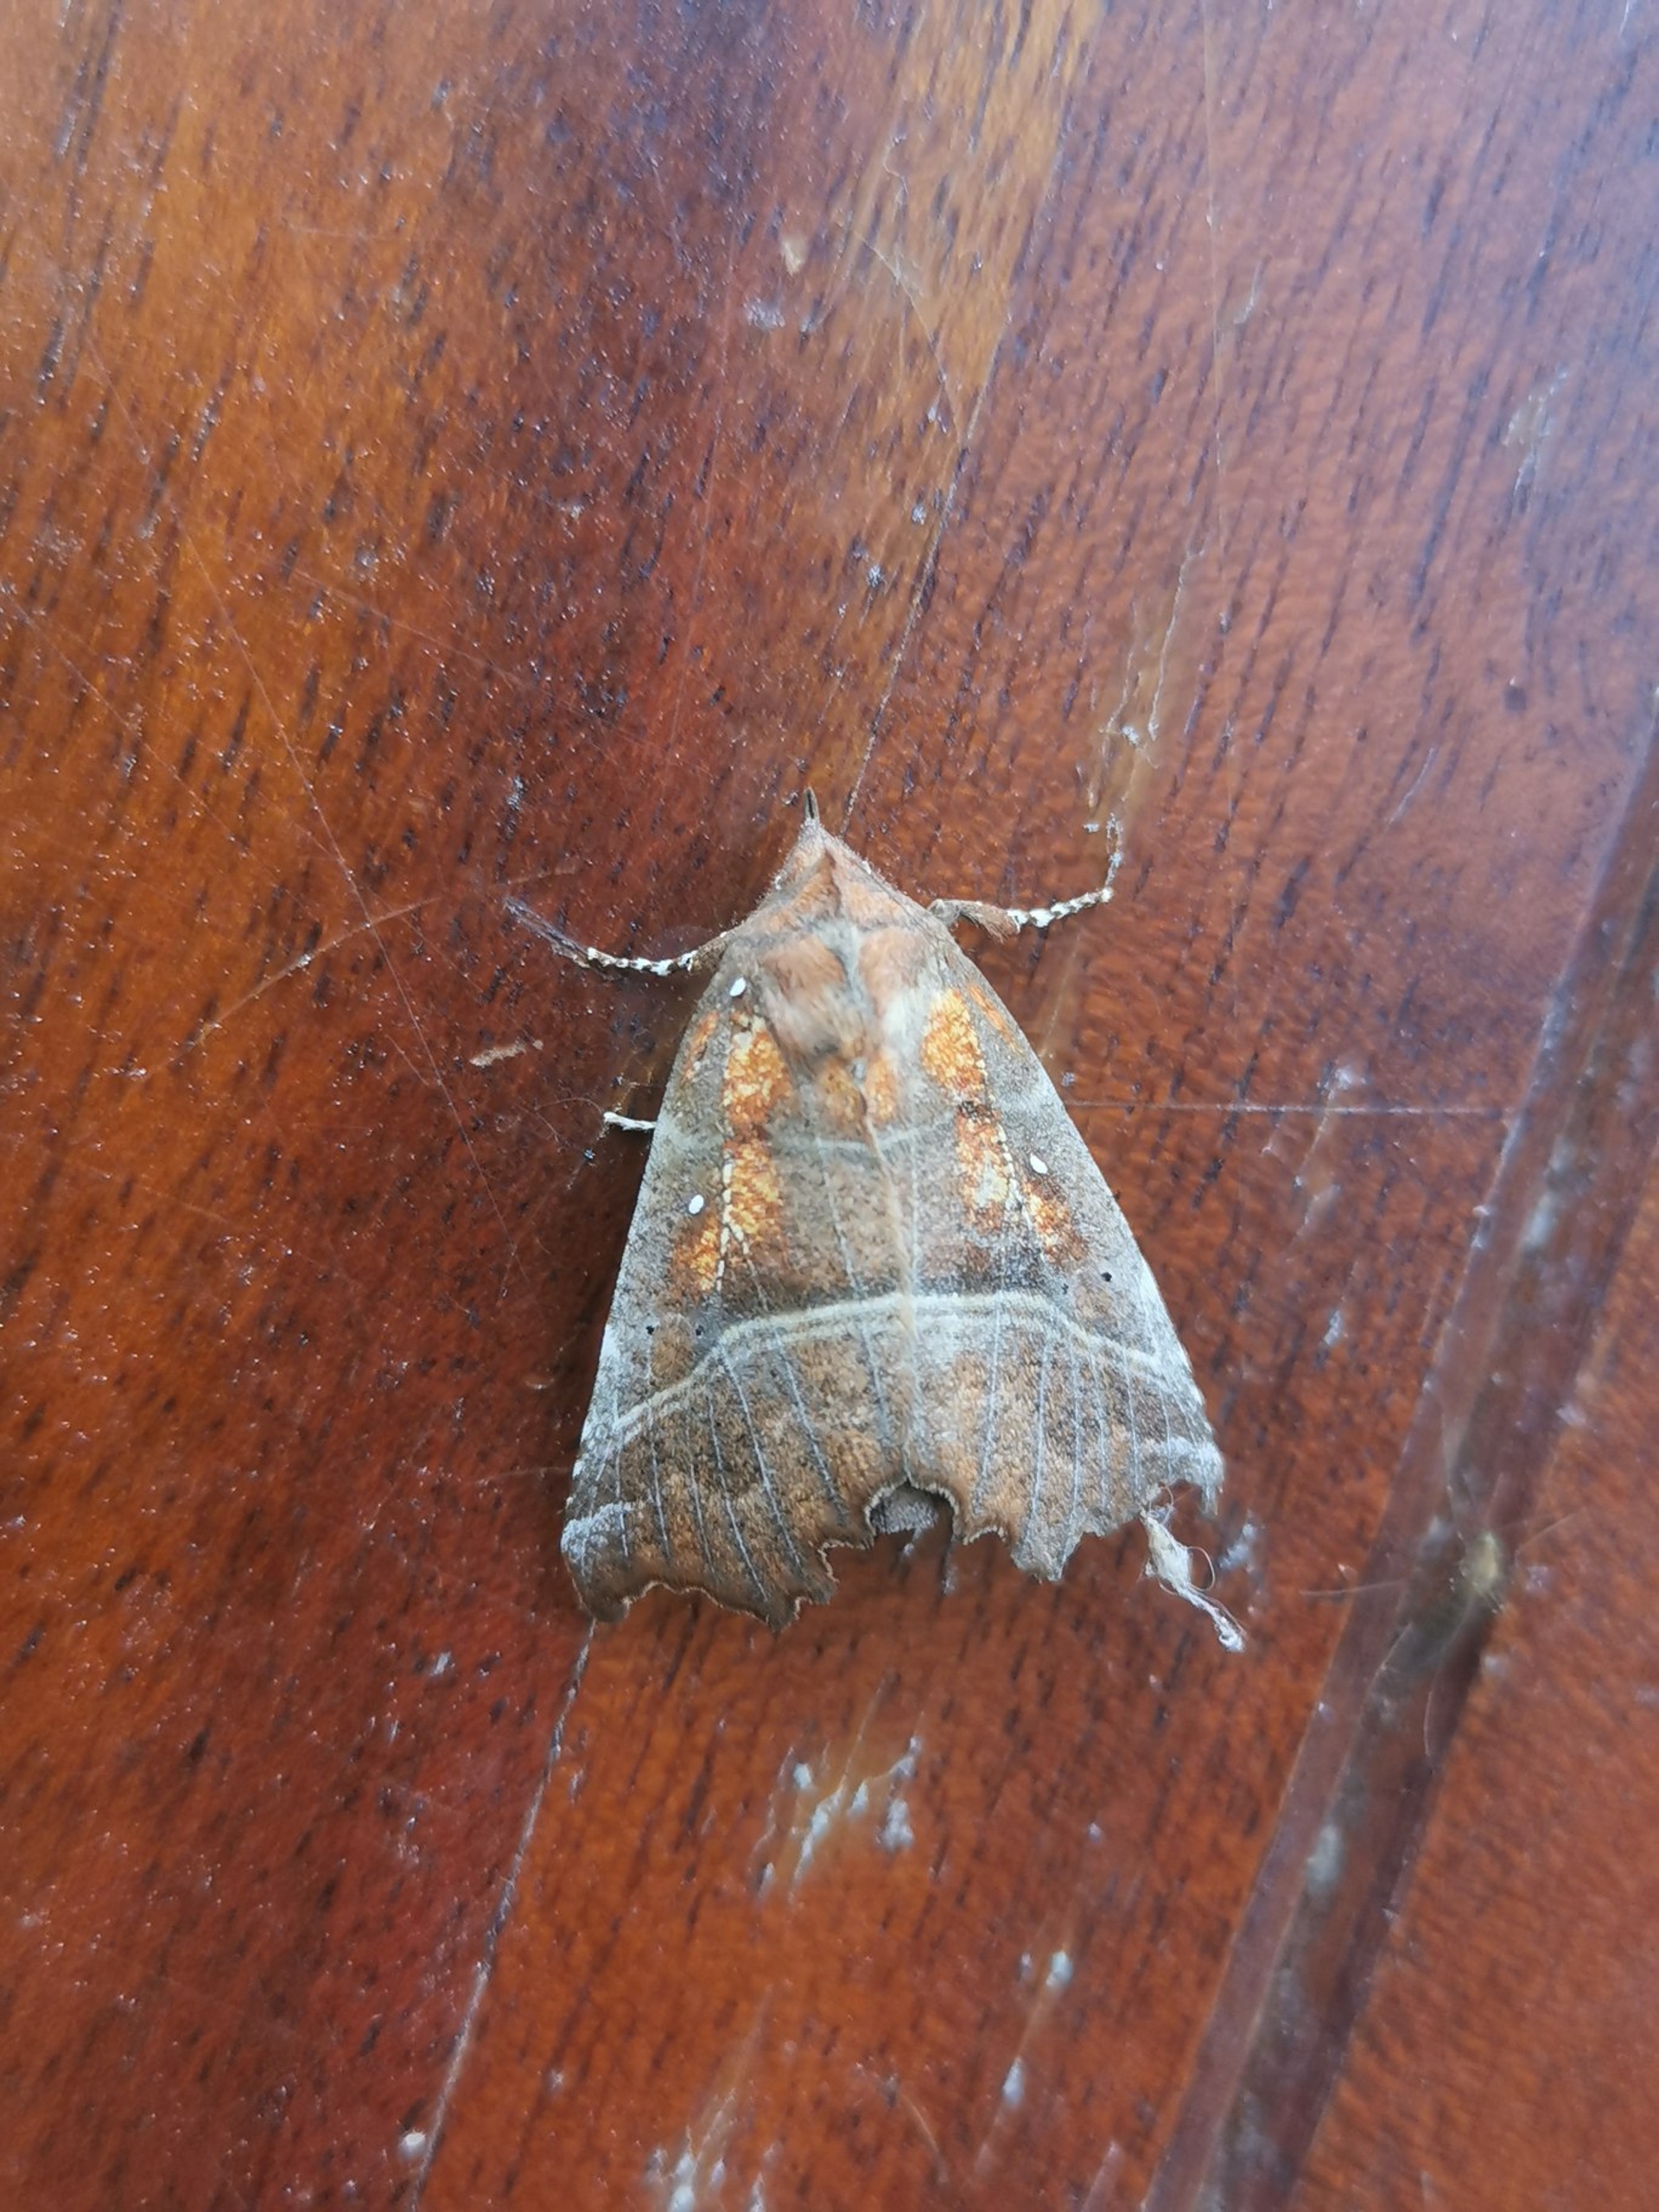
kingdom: Animalia
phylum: Arthropoda
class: Insecta
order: Lepidoptera
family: Erebidae
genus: Scoliopteryx
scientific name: Scoliopteryx libatrix
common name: Husmoderugle
